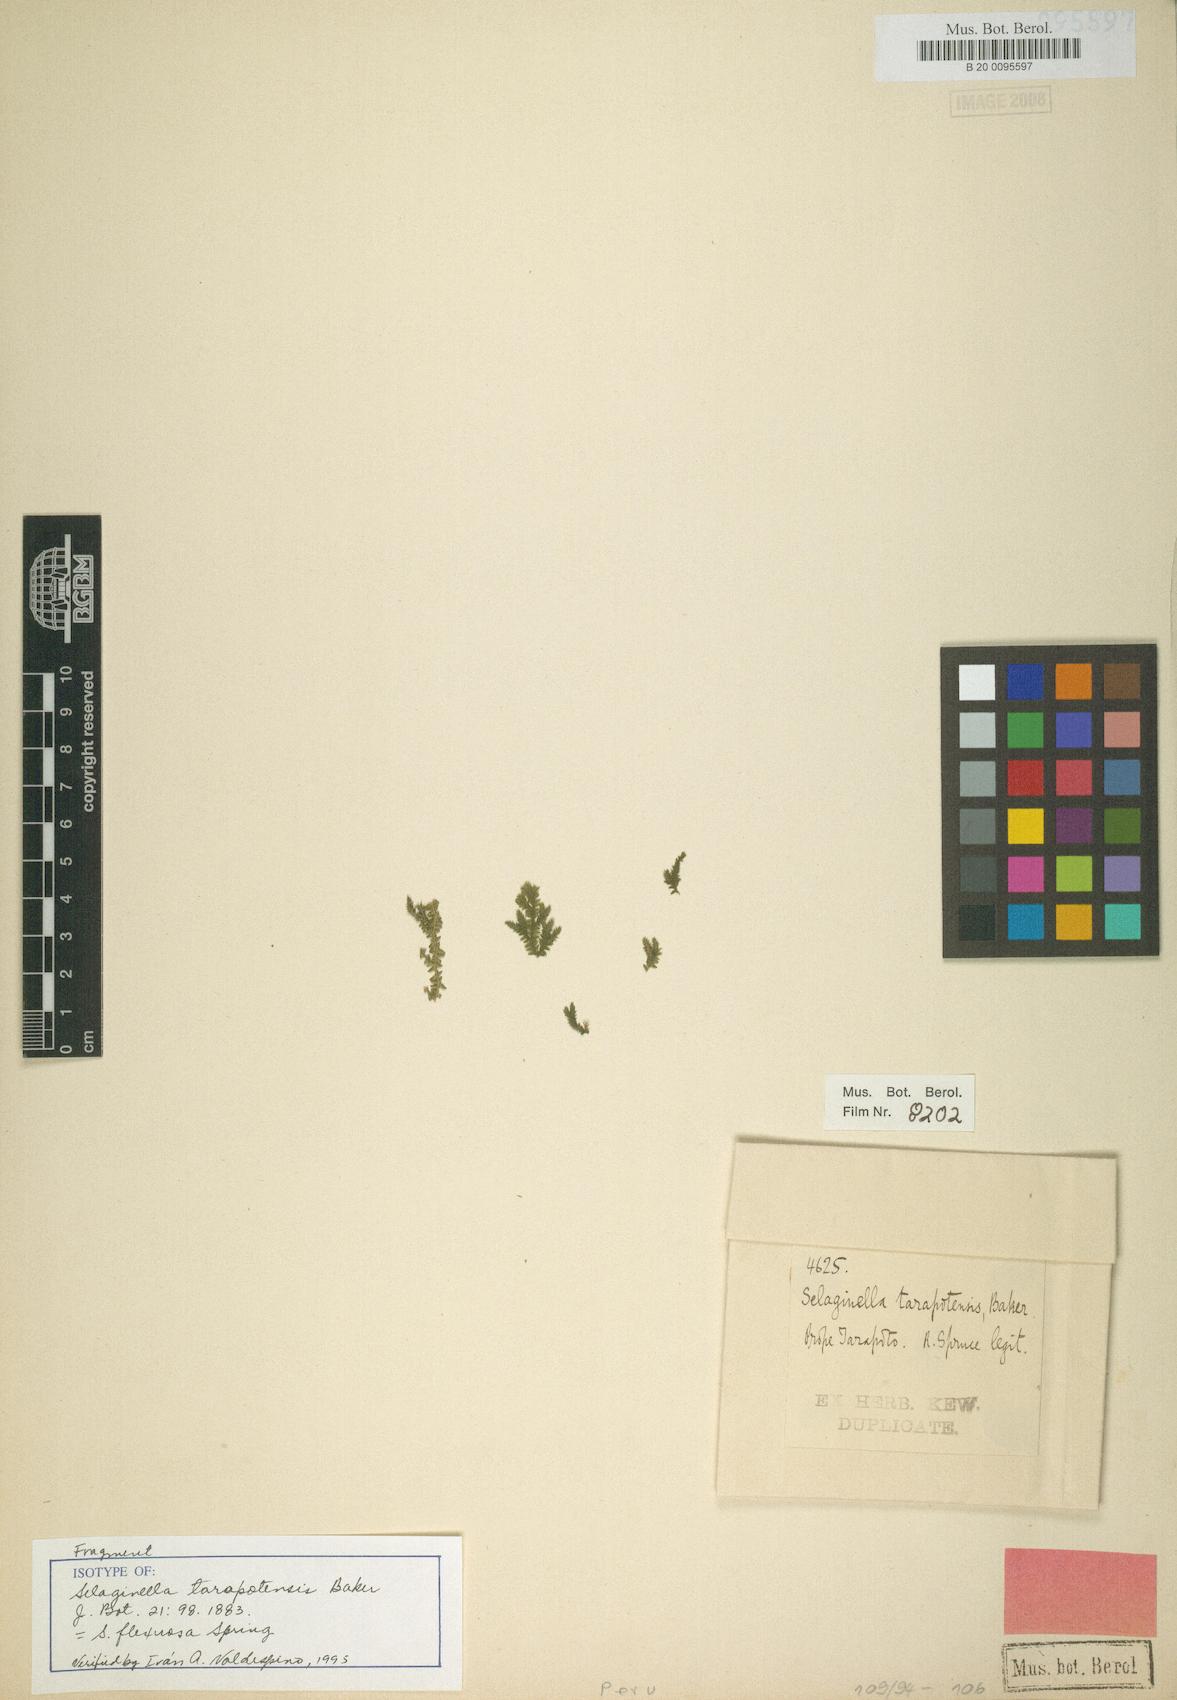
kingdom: Plantae
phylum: Tracheophyta
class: Lycopodiopsida
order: Selaginellales
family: Selaginellaceae
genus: Selaginella
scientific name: Selaginella flexuosa
